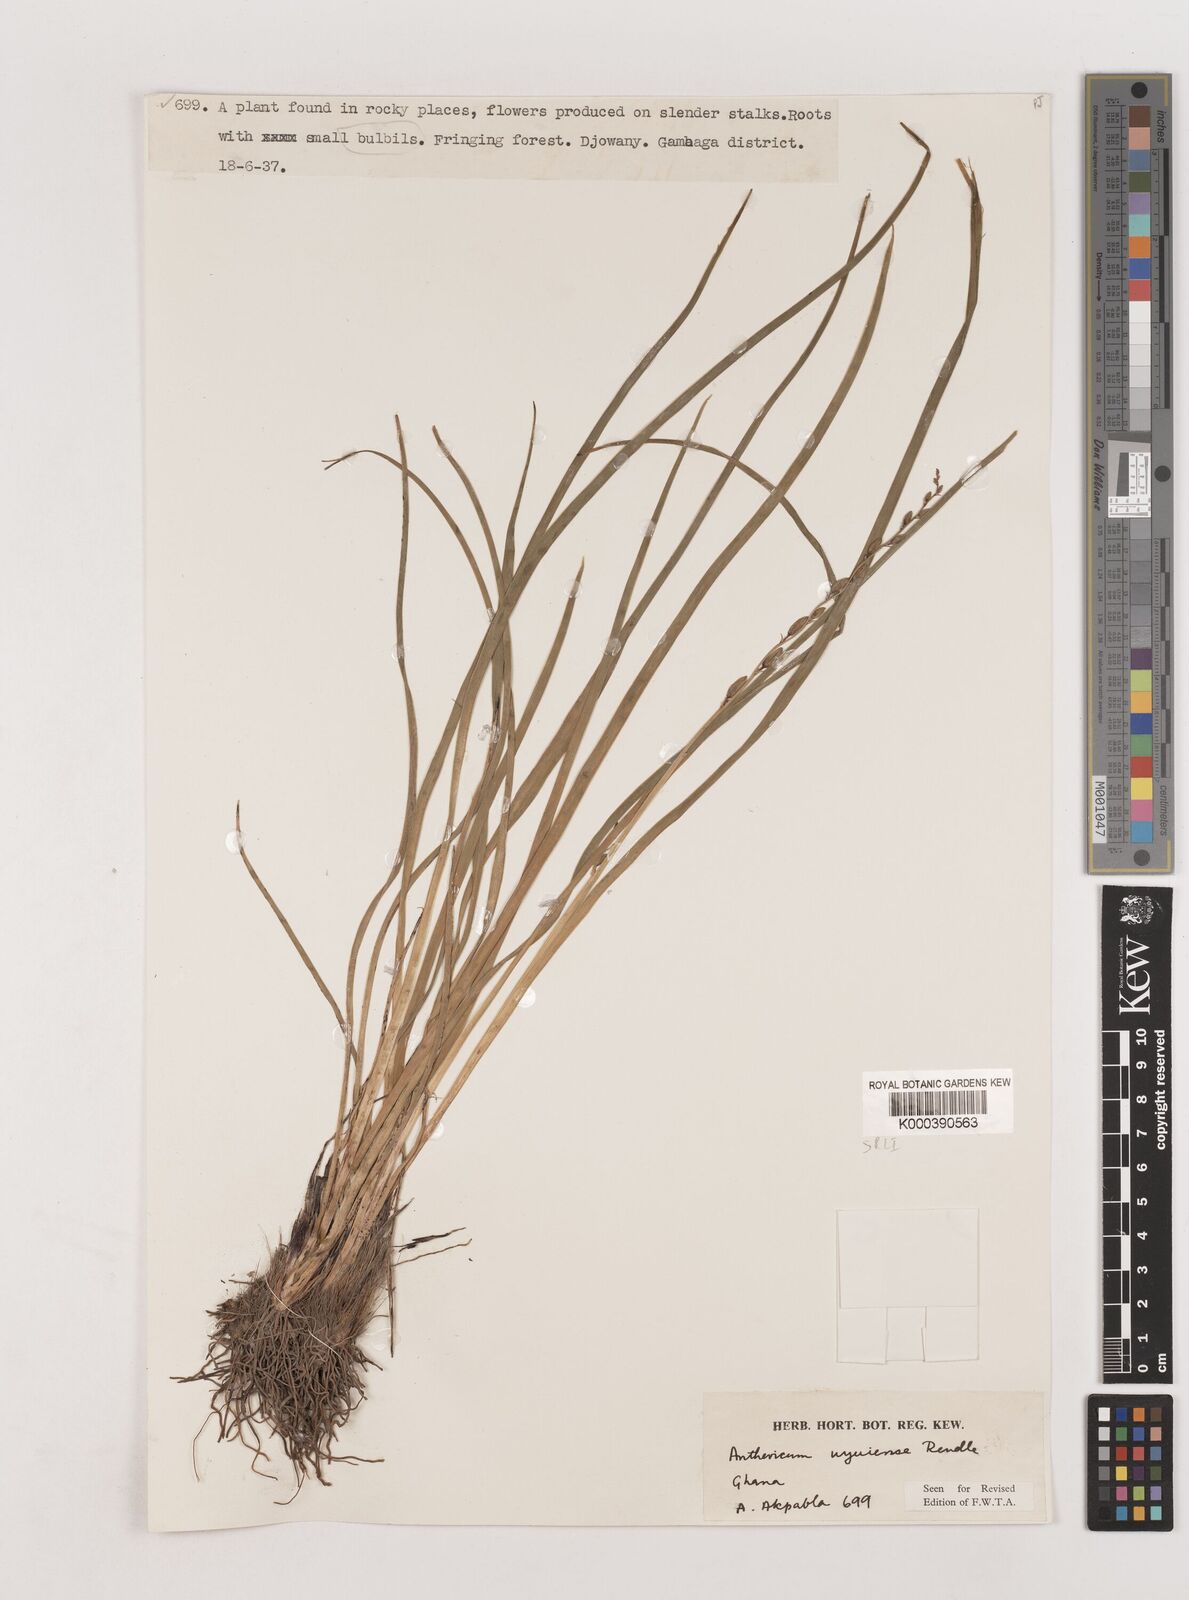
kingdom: Plantae
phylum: Tracheophyta
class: Liliopsida
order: Asparagales
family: Asparagaceae
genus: Chlorophytum
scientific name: Chlorophytum cameronii
